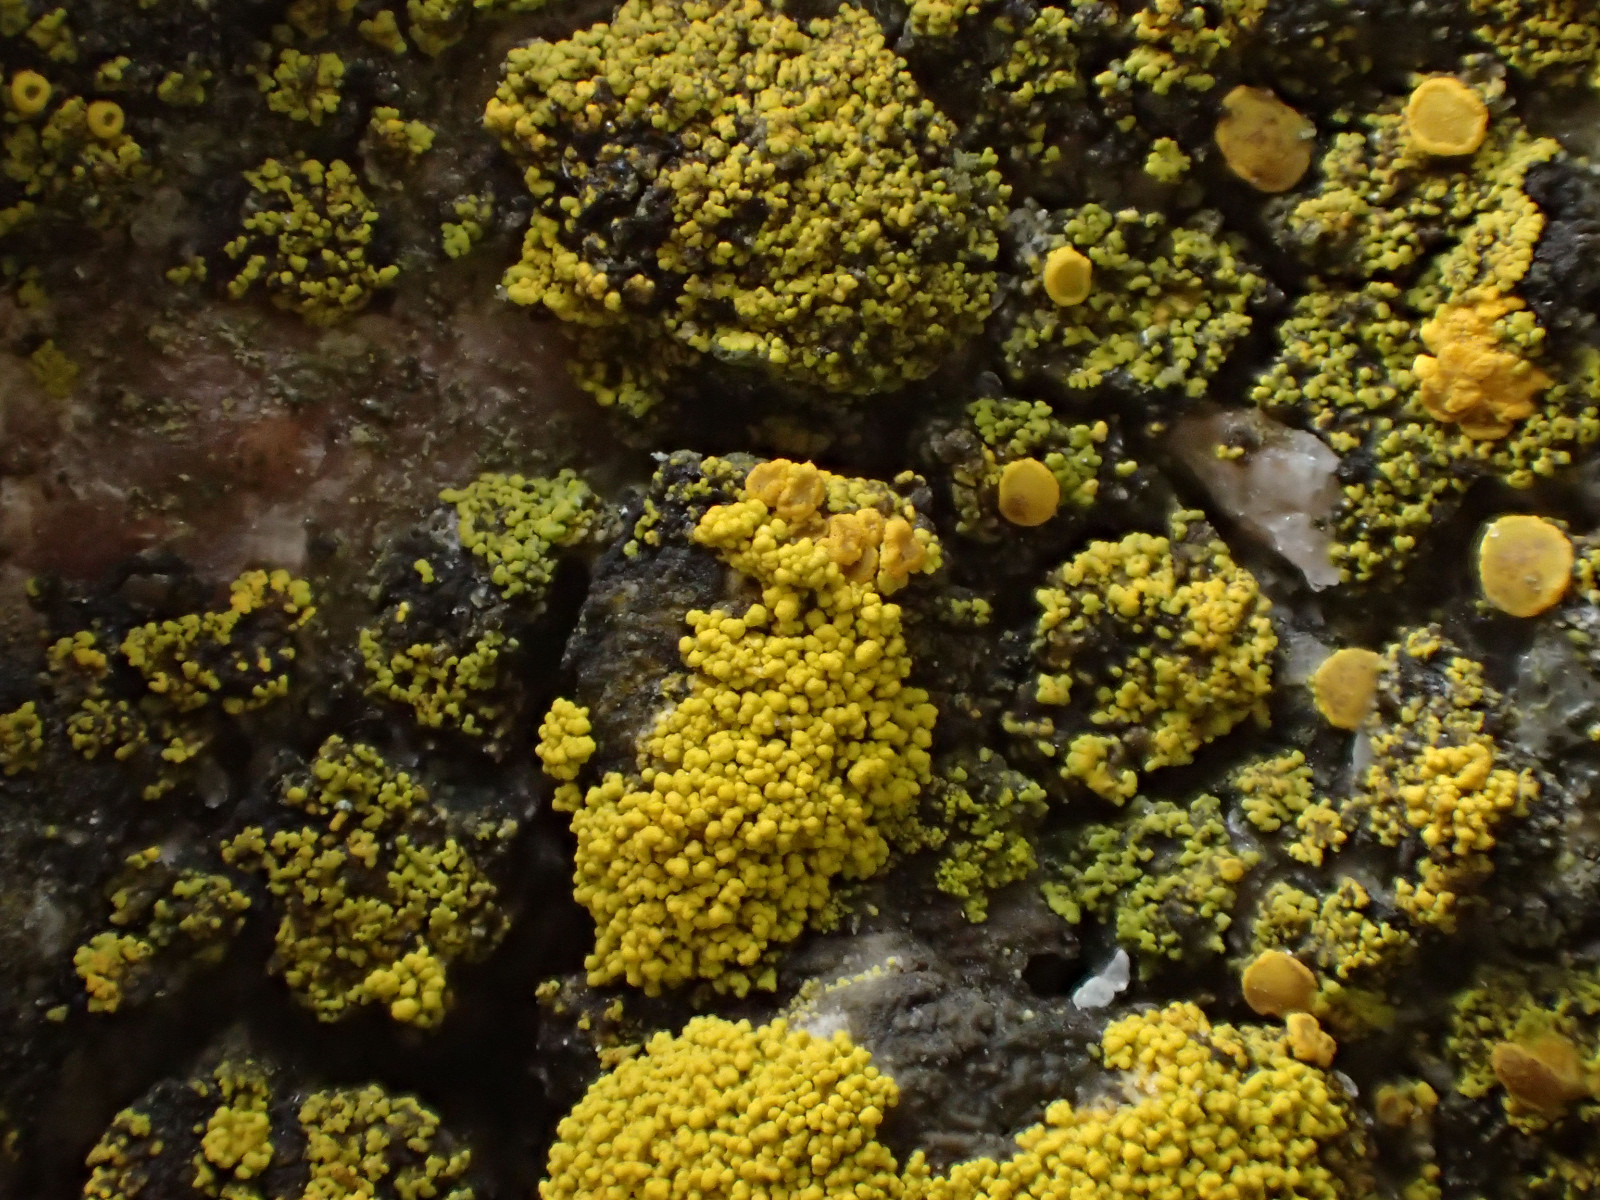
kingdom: Fungi
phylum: Ascomycota
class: Candelariomycetes
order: Candelariales
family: Candelariaceae
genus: Candelariella
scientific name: Candelariella coralliza
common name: pude-æggeblommelav
